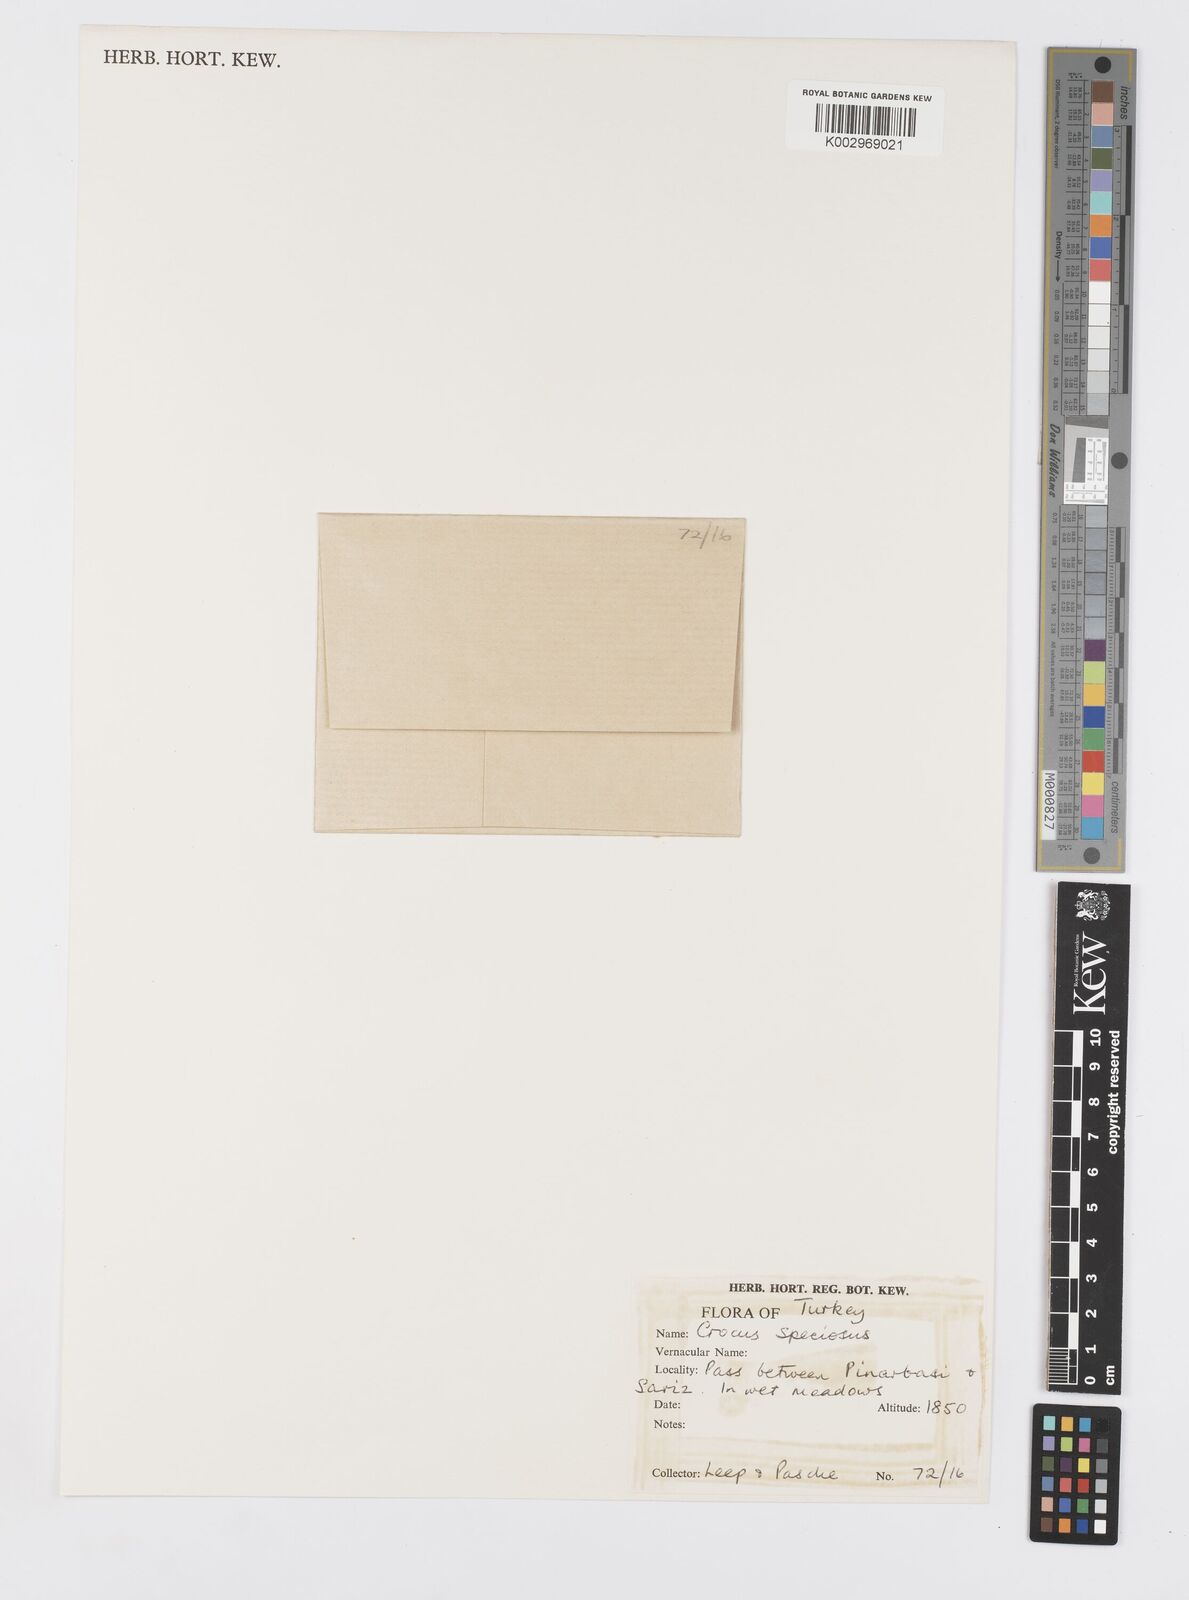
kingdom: Plantae
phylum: Tracheophyta
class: Liliopsida
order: Asparagales
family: Iridaceae
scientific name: Iridaceae
